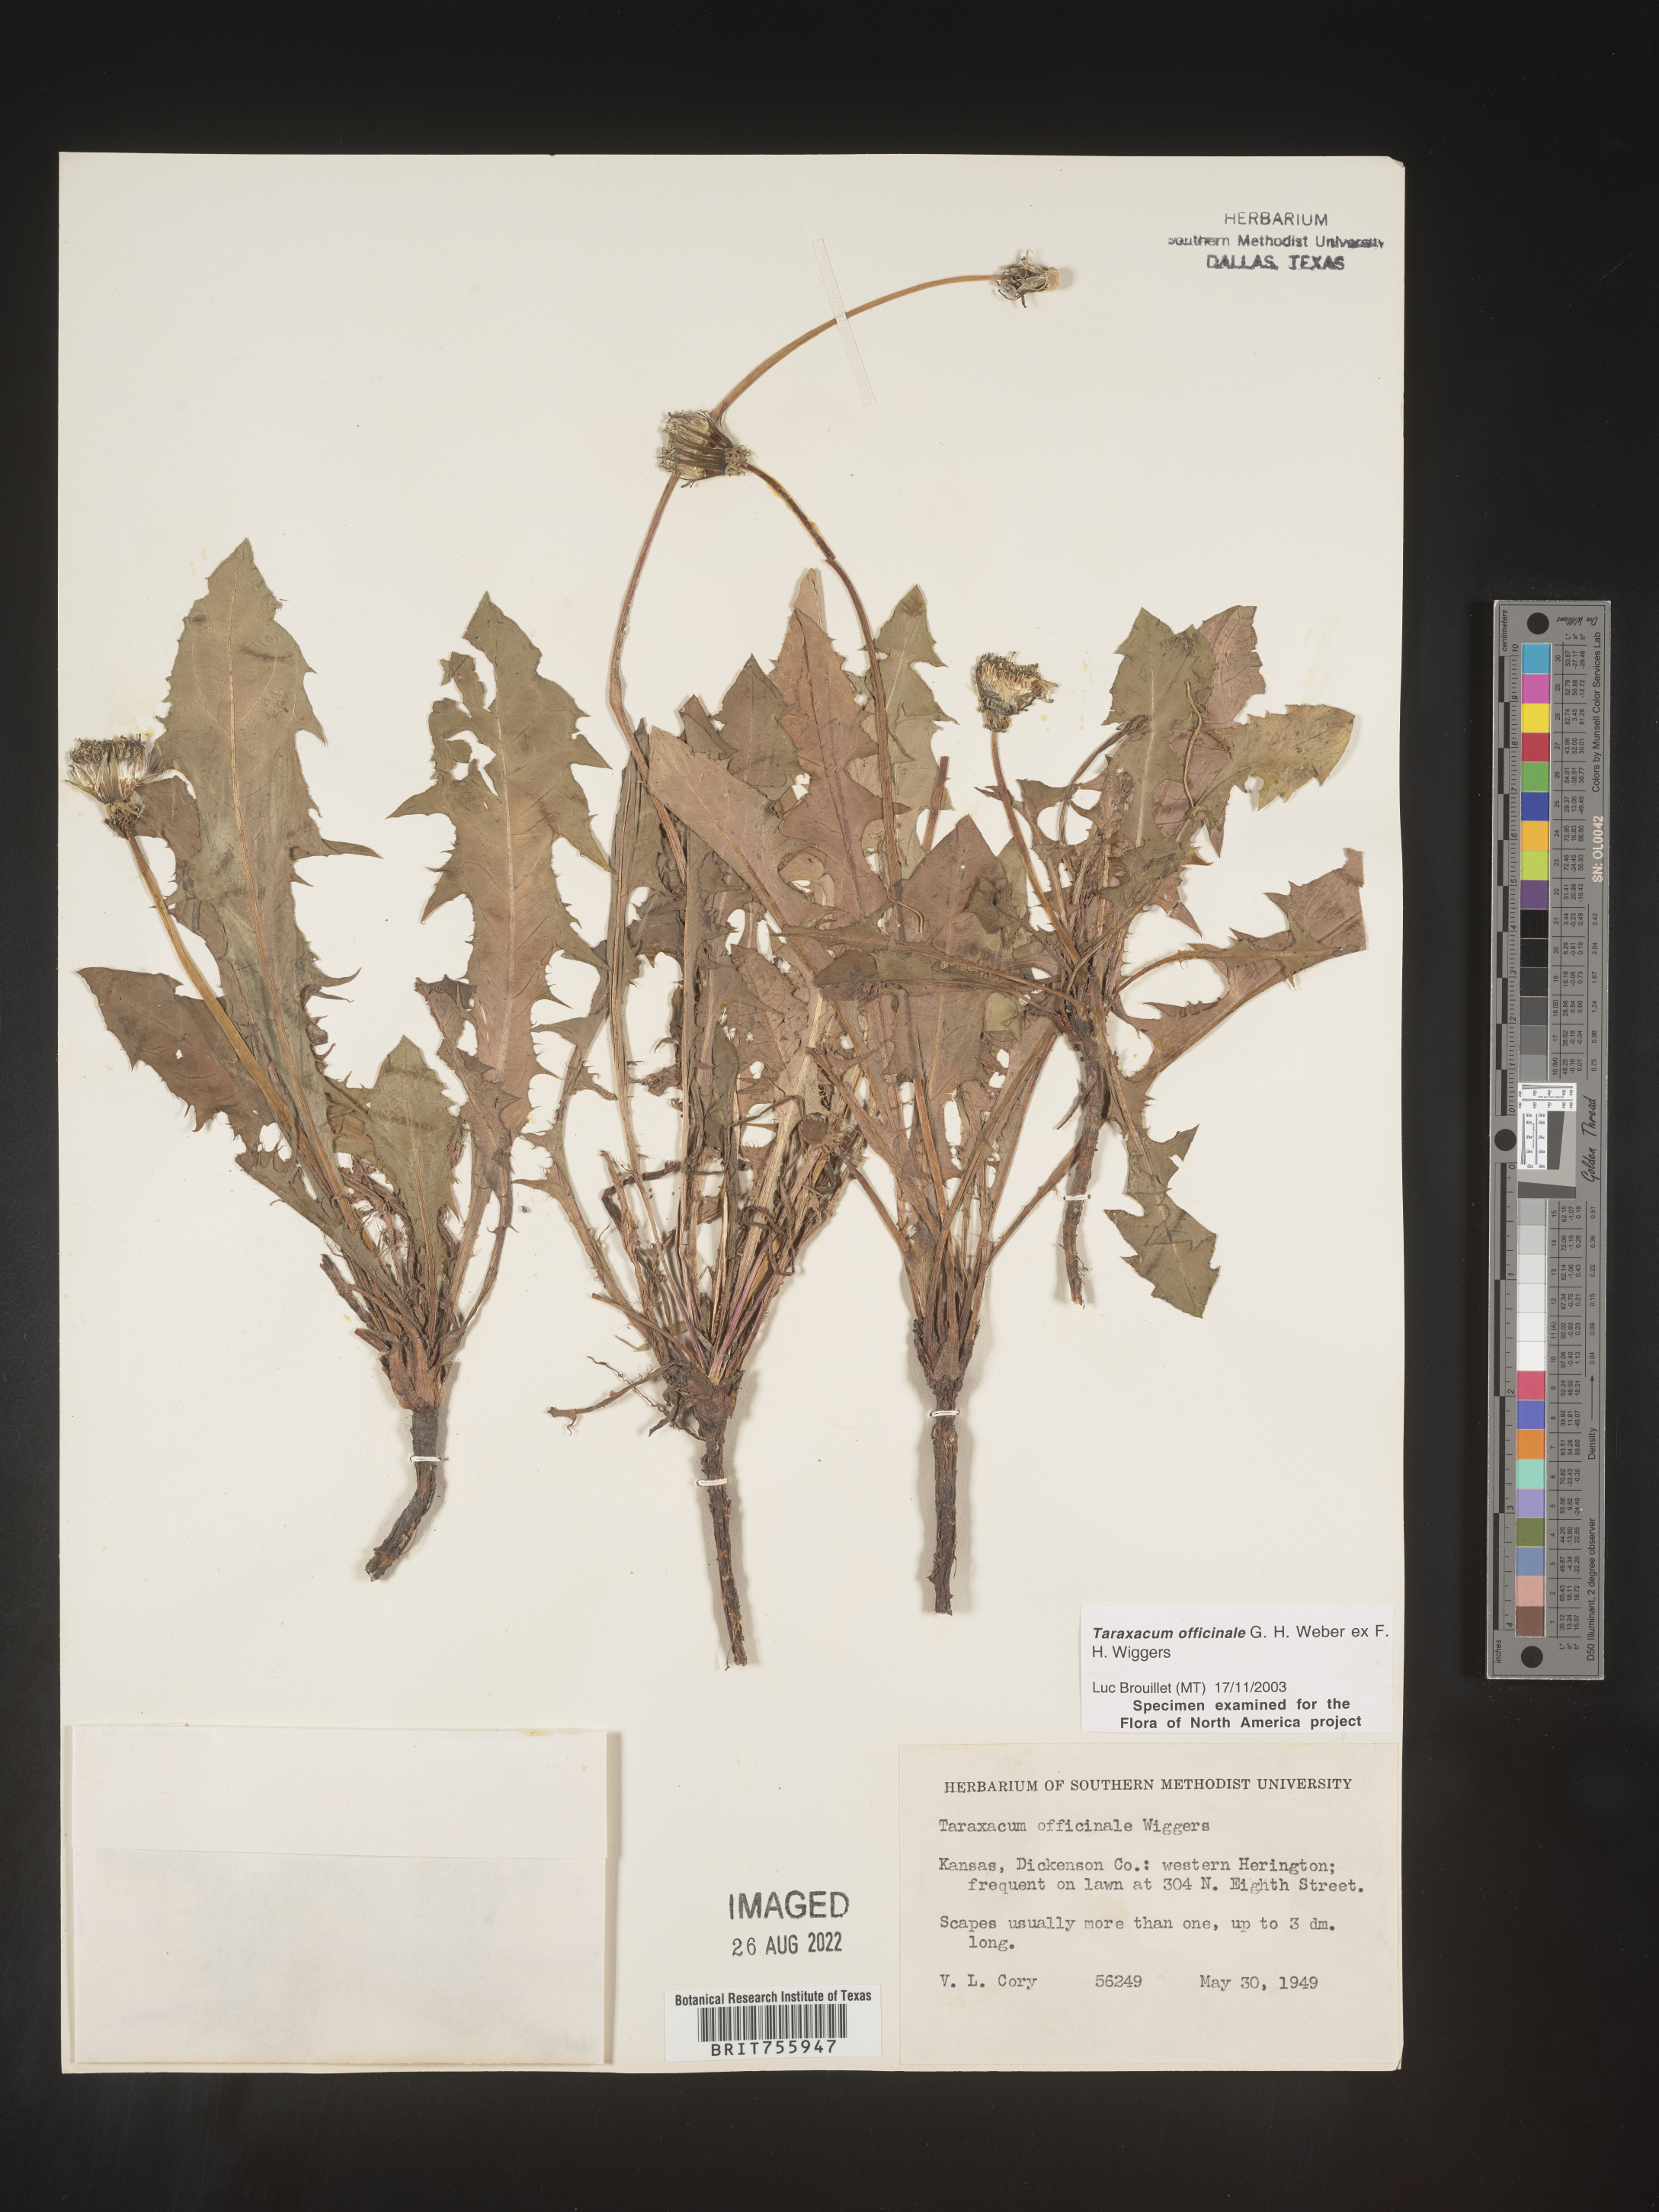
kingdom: Plantae
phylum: Tracheophyta
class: Magnoliopsida
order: Asterales
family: Asteraceae
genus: Taraxacum
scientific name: Taraxacum officinale
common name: Common dandelion
